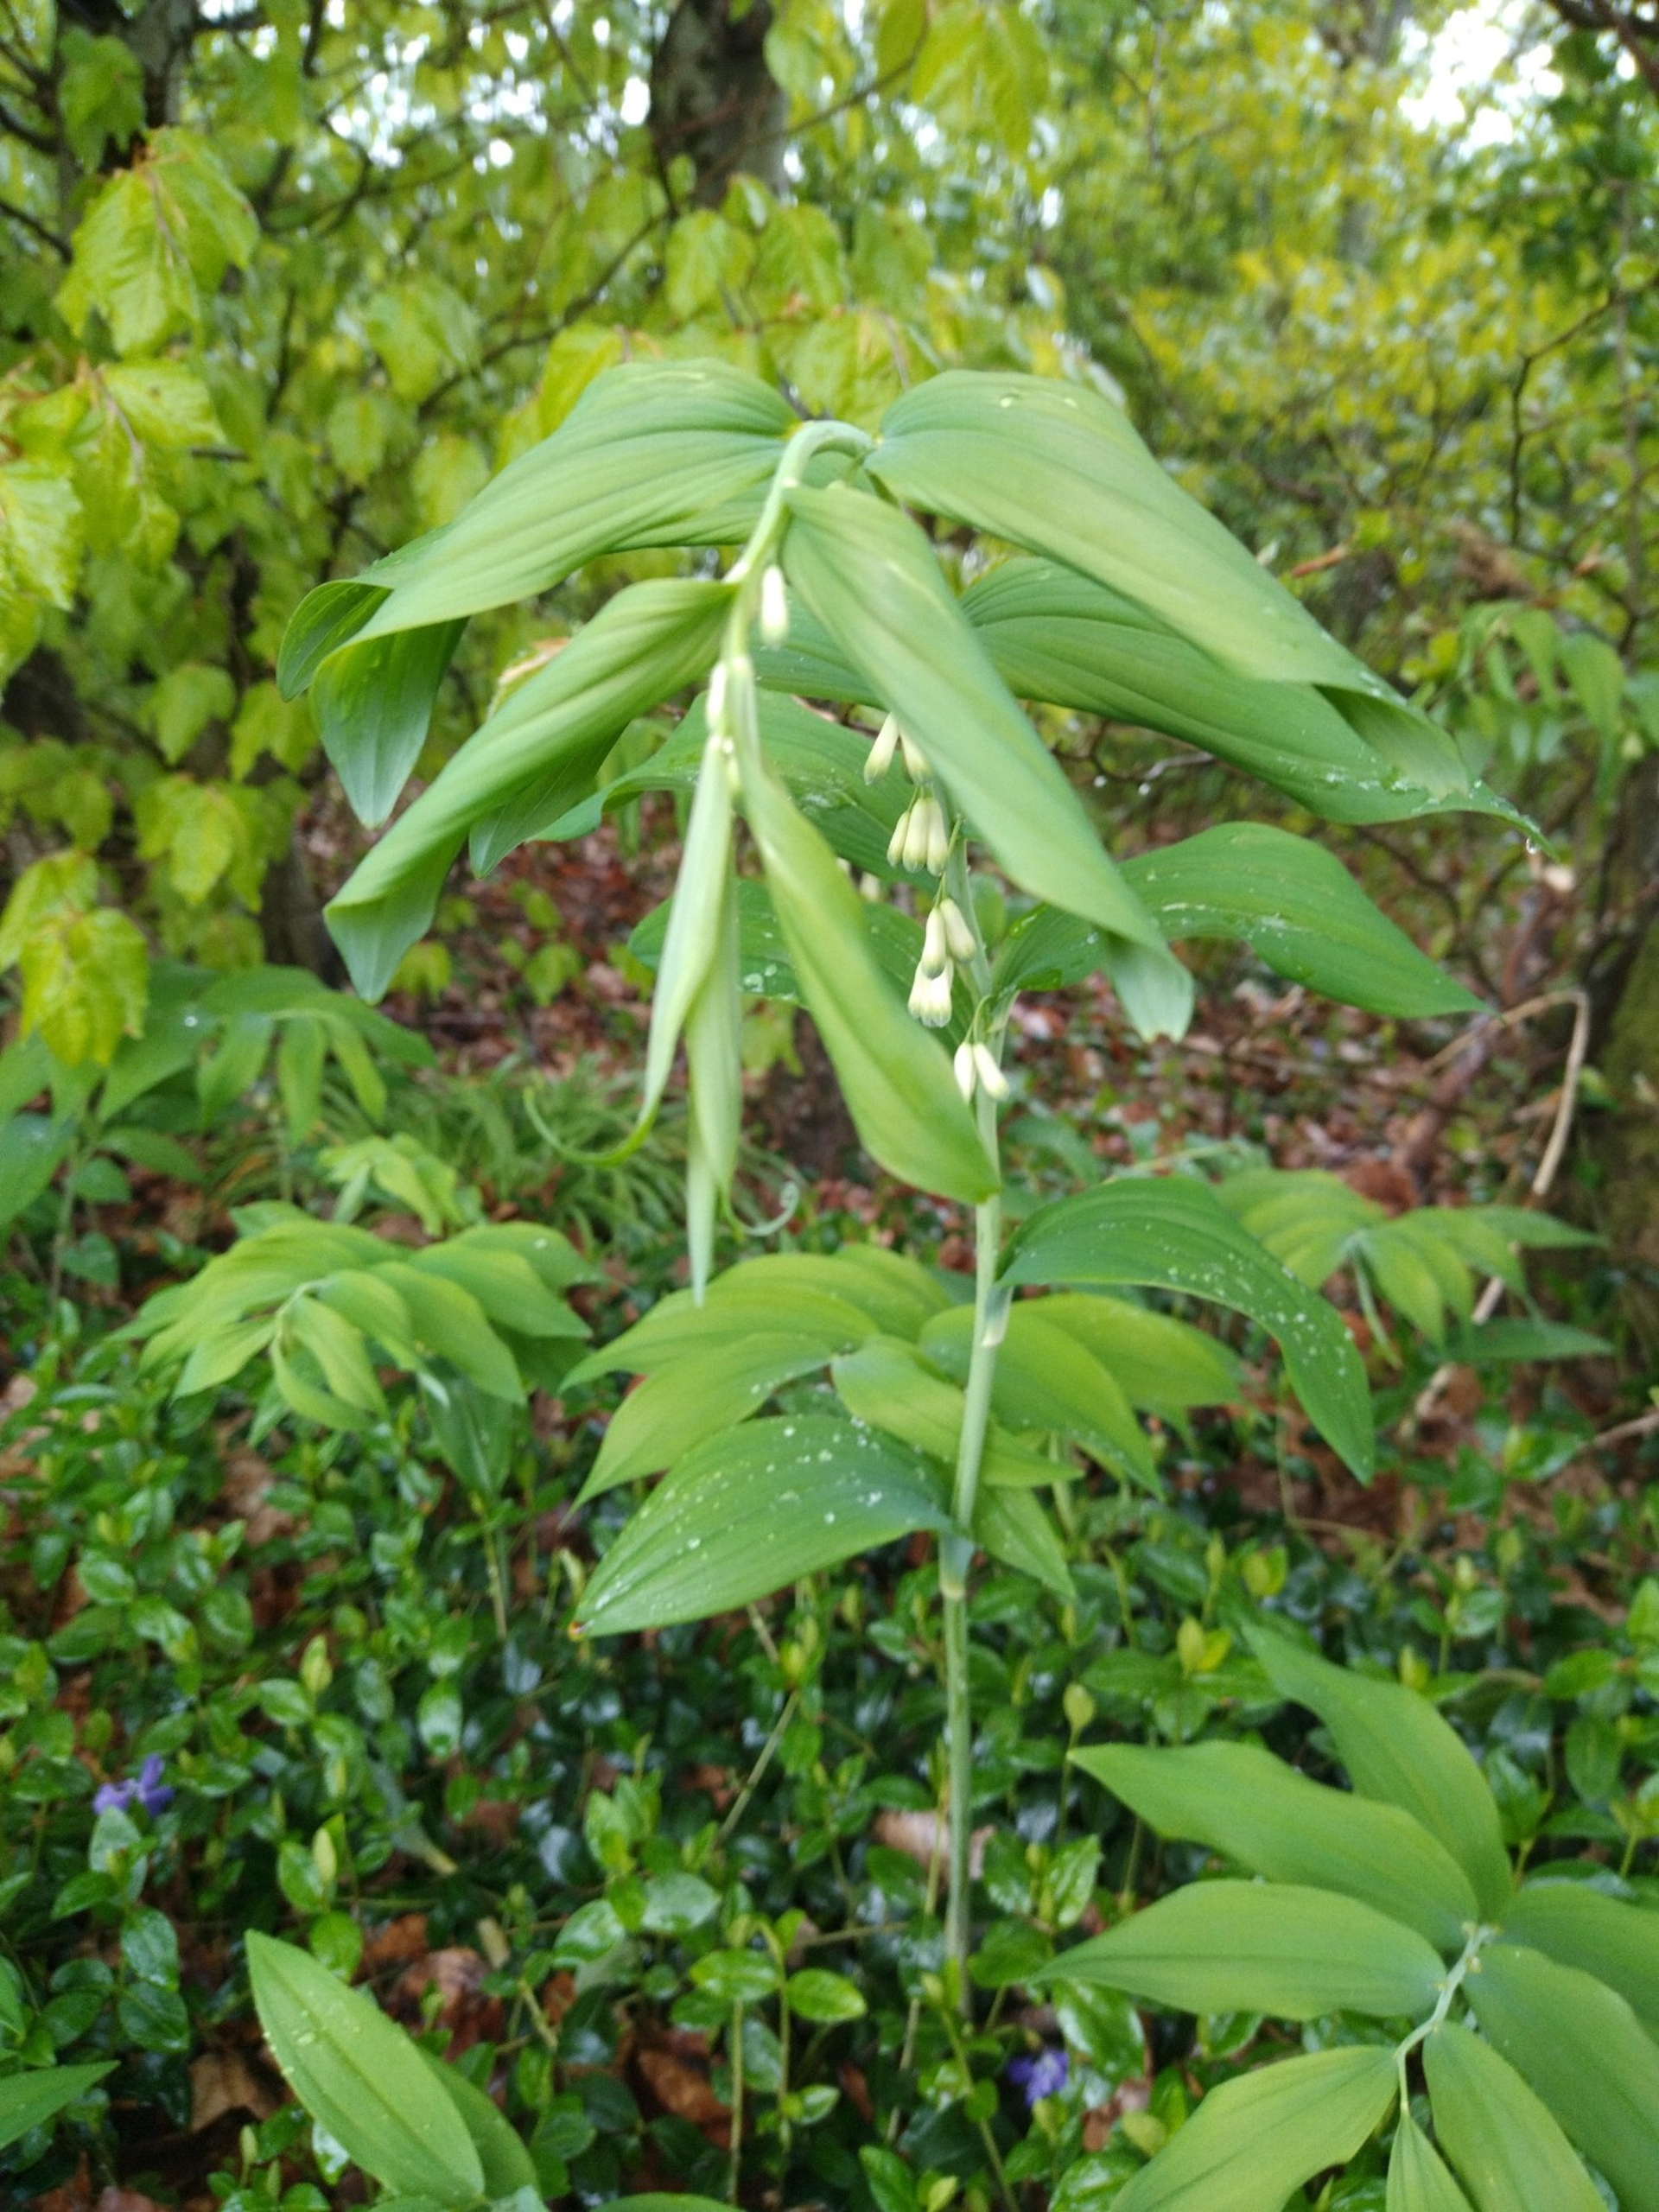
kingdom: Plantae
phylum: Tracheophyta
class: Liliopsida
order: Asparagales
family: Asparagaceae
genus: Polygonatum
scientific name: Polygonatum multiflorum
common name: Stor konval
